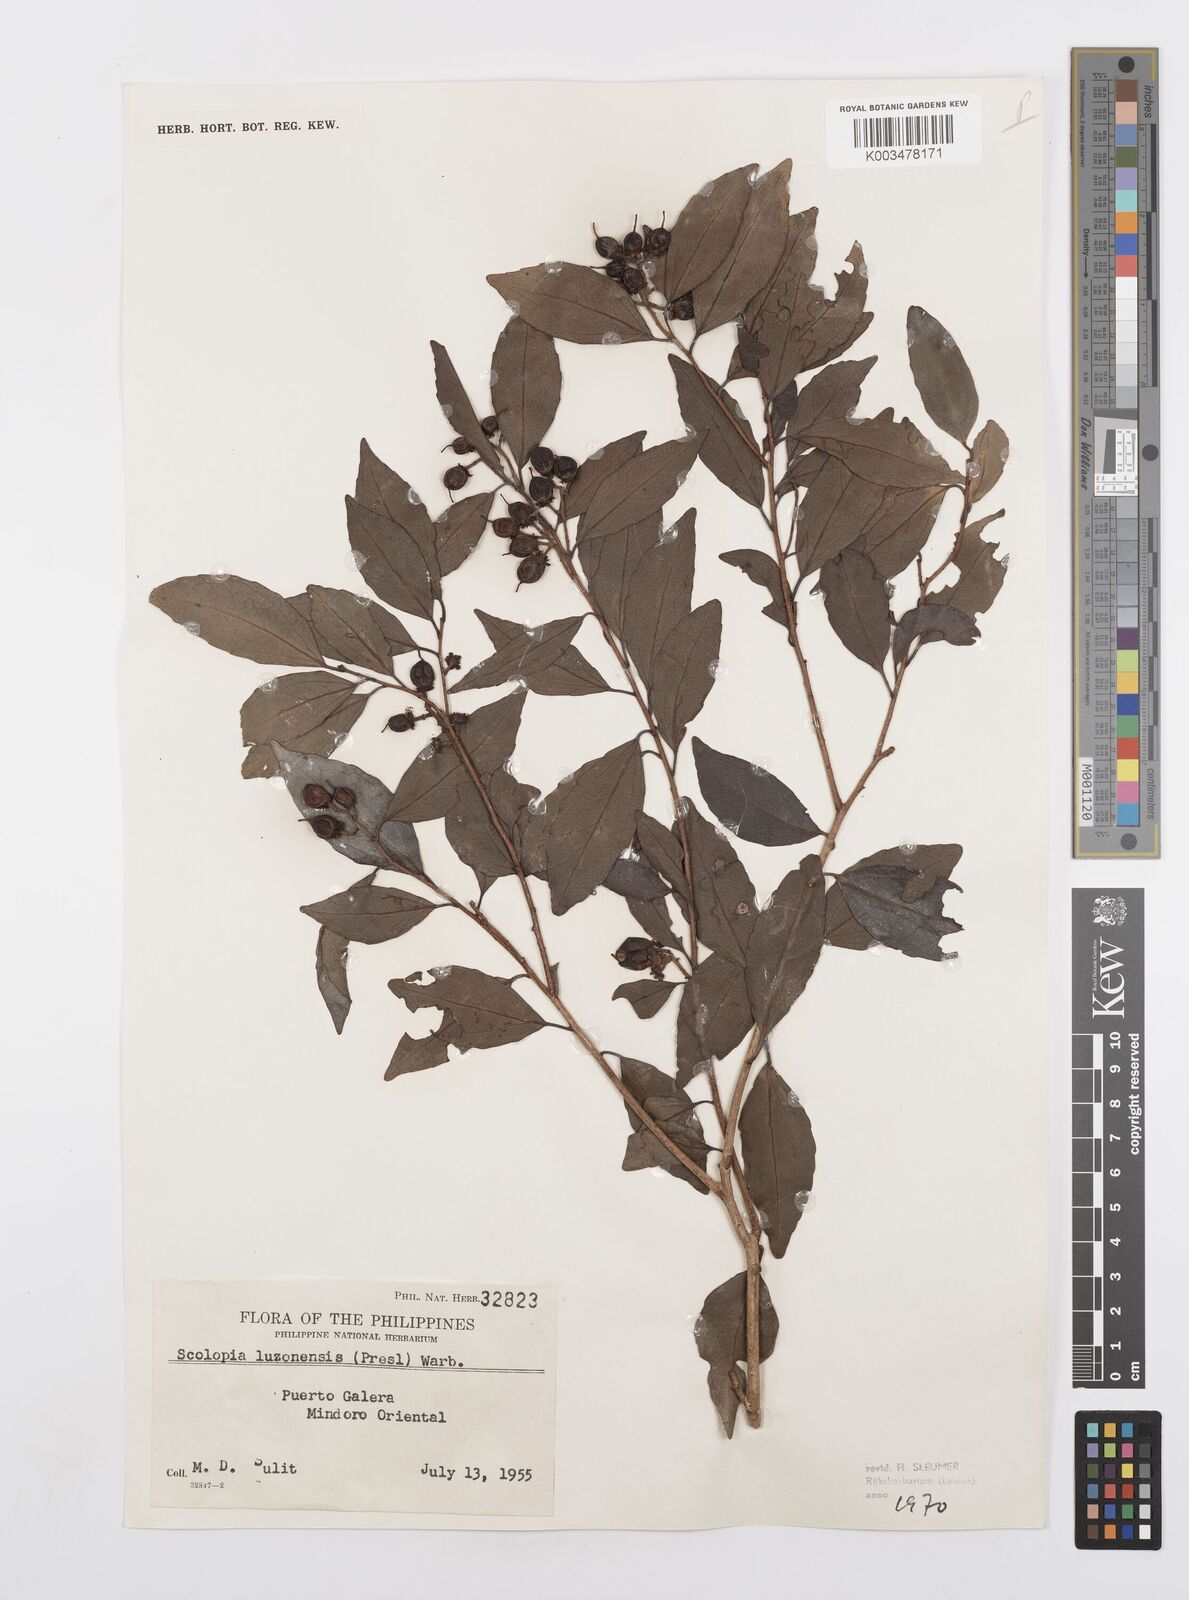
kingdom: Plantae
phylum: Tracheophyta
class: Magnoliopsida
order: Malpighiales
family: Salicaceae
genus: Scolopia
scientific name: Scolopia luzonensis
